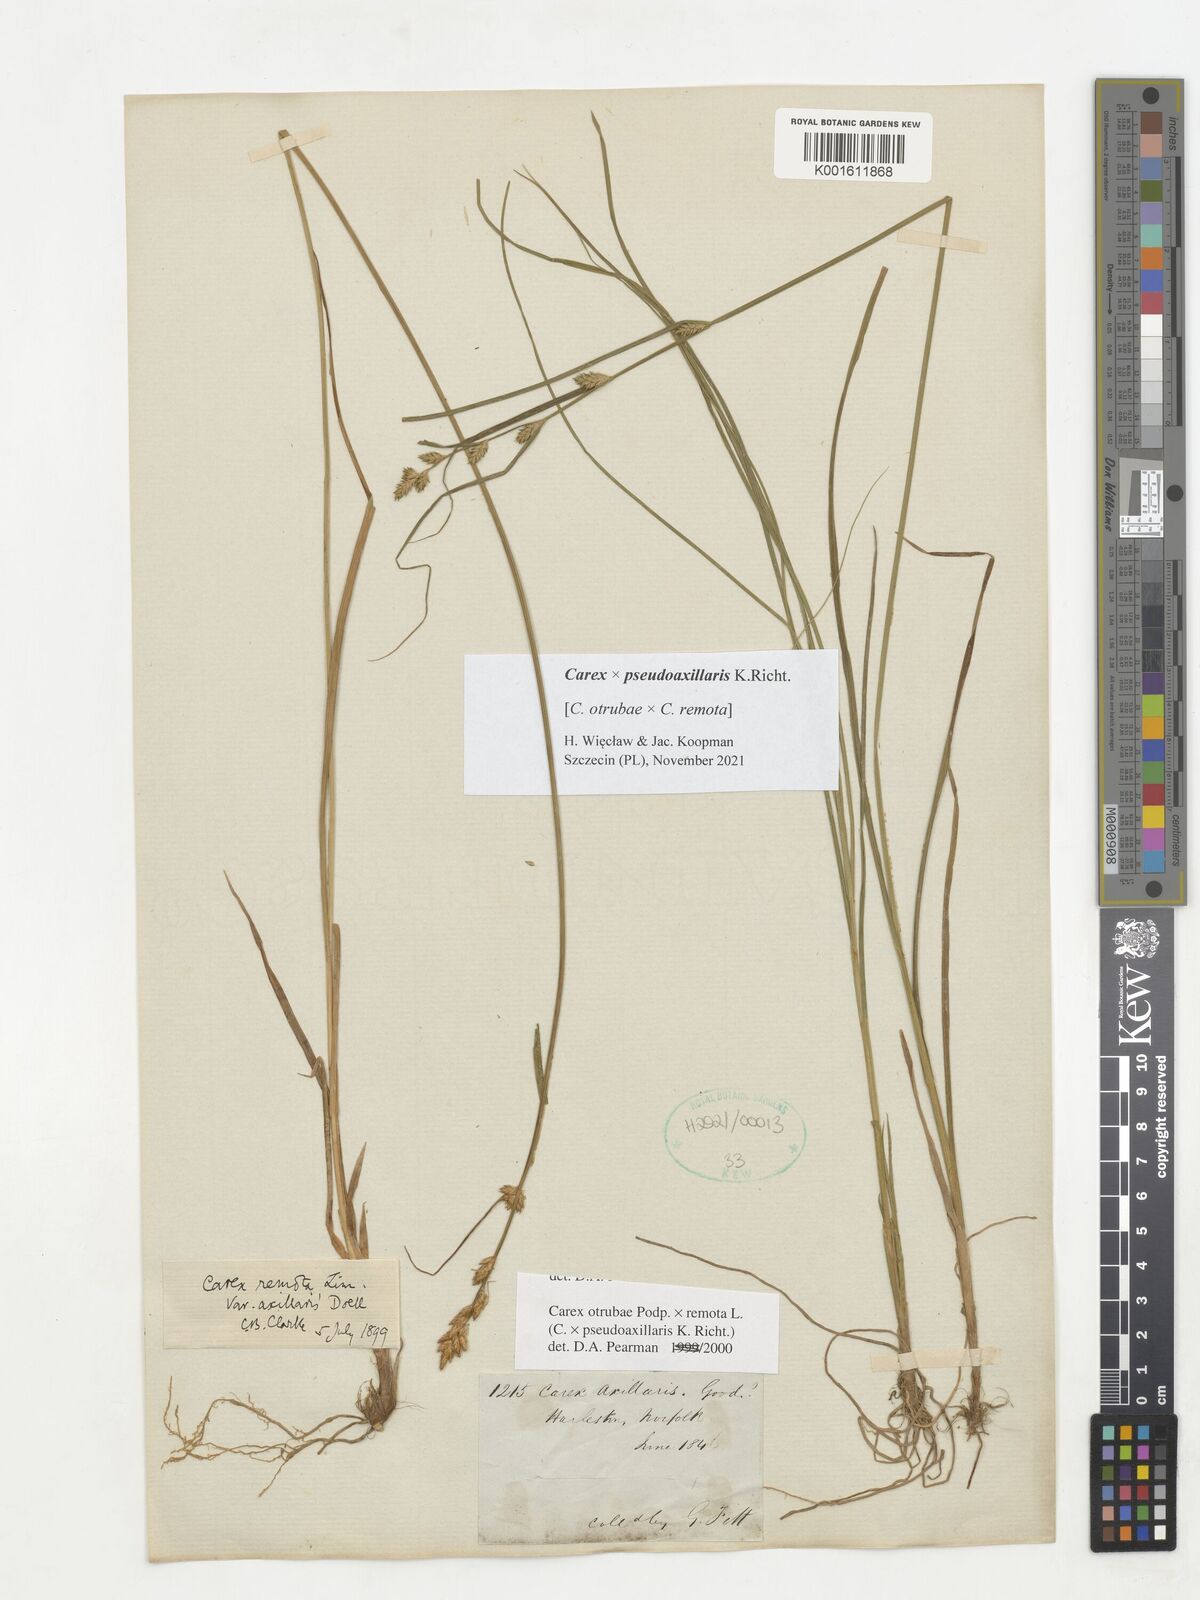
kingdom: Plantae
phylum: Tracheophyta
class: Liliopsida
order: Poales
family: Cyperaceae
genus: Carex
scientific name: Carex pseudoaxillaris
